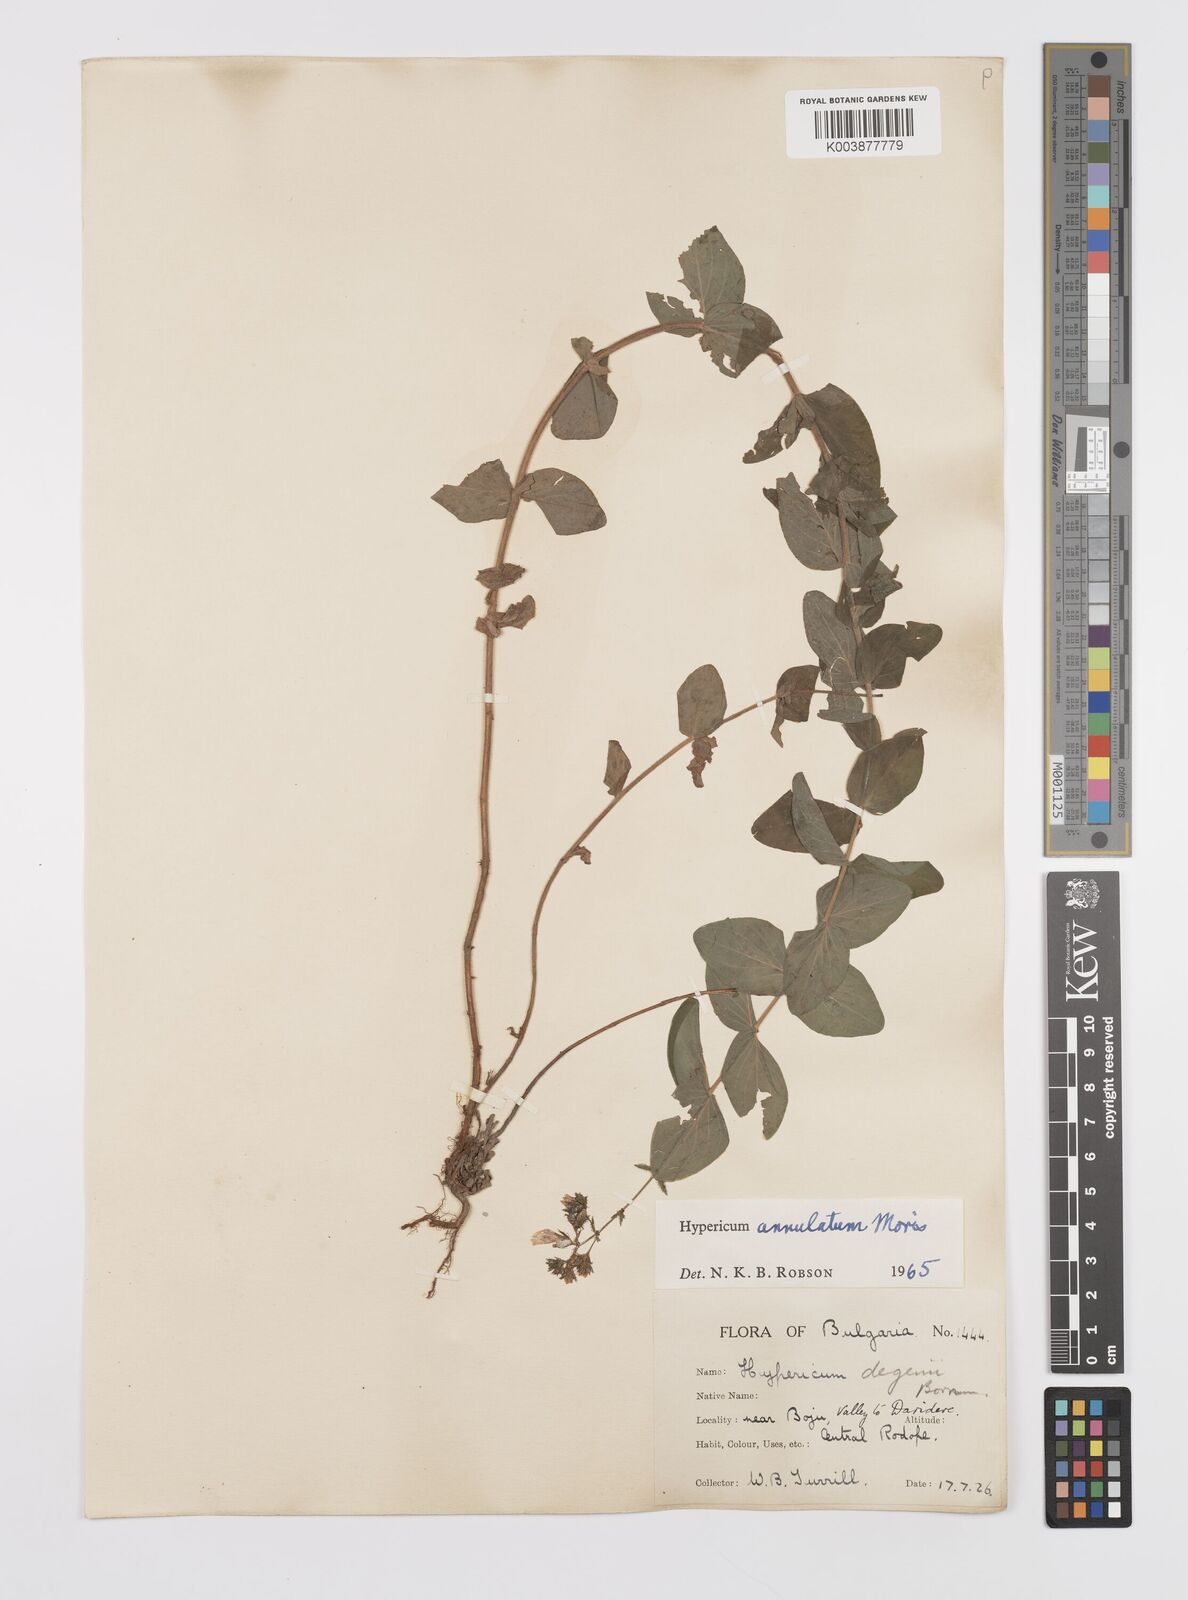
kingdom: Plantae
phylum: Tracheophyta
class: Magnoliopsida
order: Malpighiales
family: Hypericaceae
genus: Hypericum
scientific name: Hypericum annulatum
